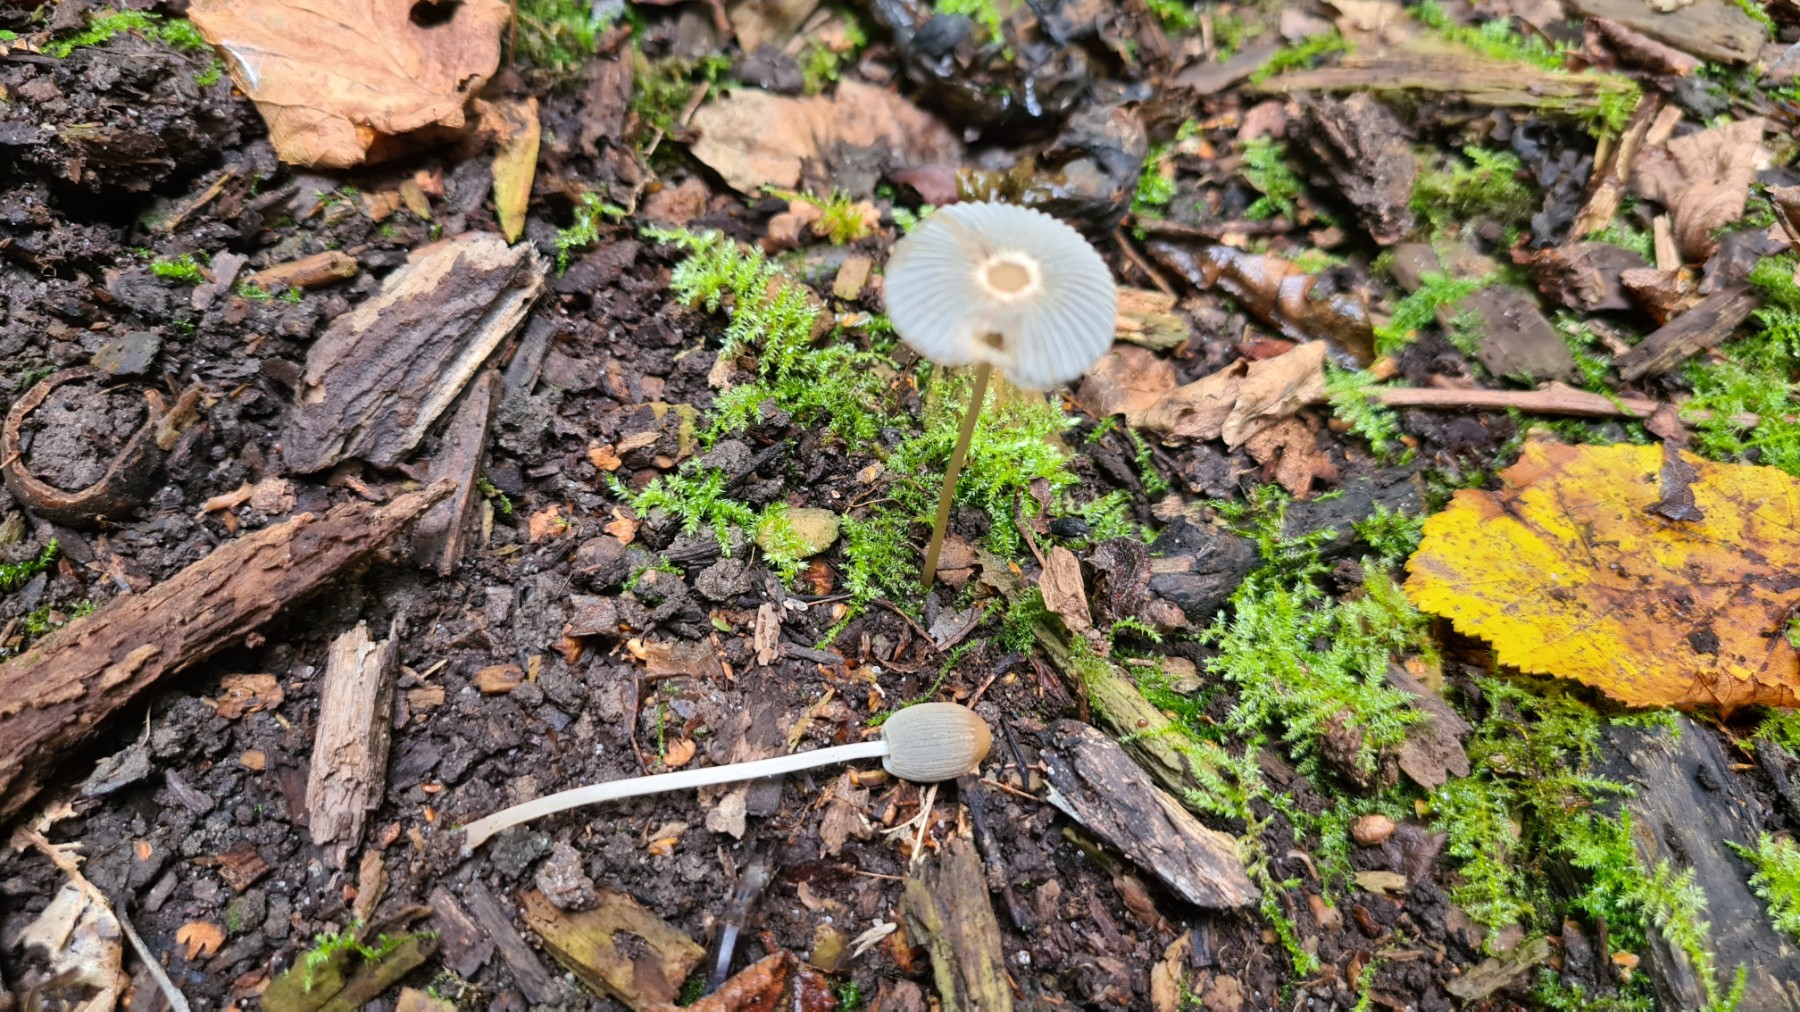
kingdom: Fungi
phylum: Basidiomycota
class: Agaricomycetes
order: Agaricales
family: Psathyrellaceae
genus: Parasola
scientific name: Parasola lactea
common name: glat hjulhat
